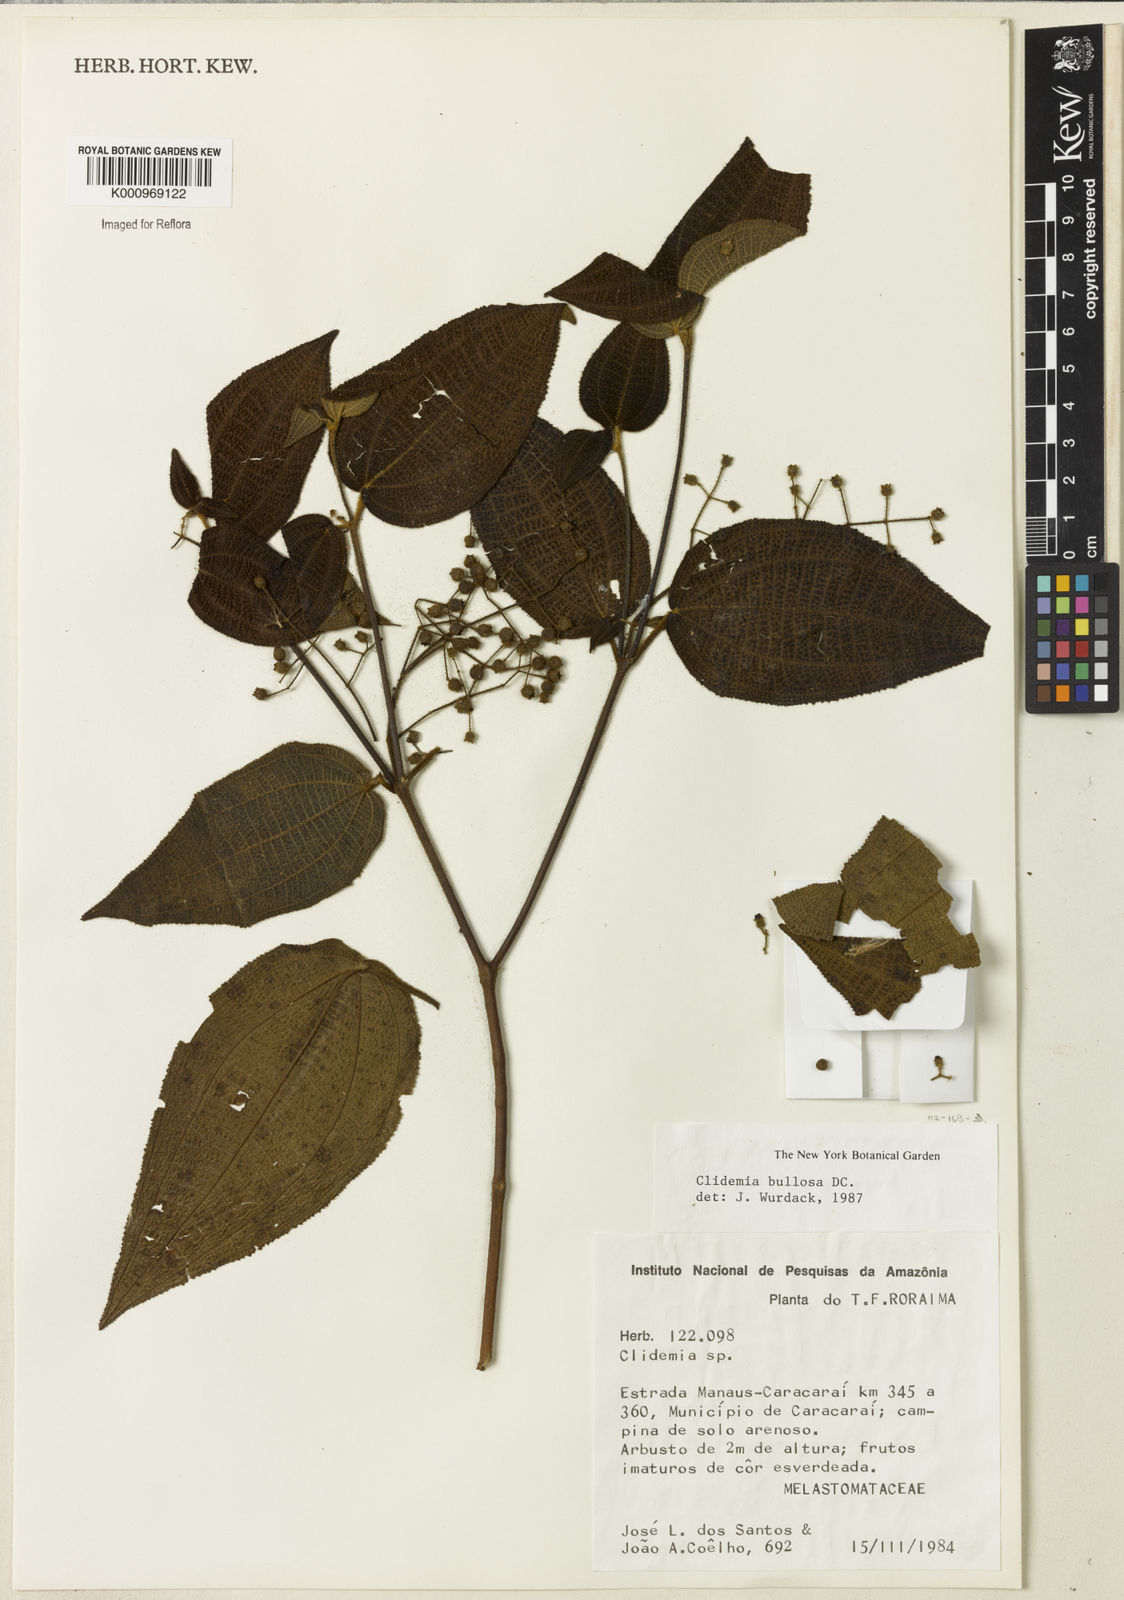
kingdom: Plantae
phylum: Tracheophyta
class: Magnoliopsida
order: Myrtales
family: Melastomataceae
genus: Miconia
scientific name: Miconia biserrata
